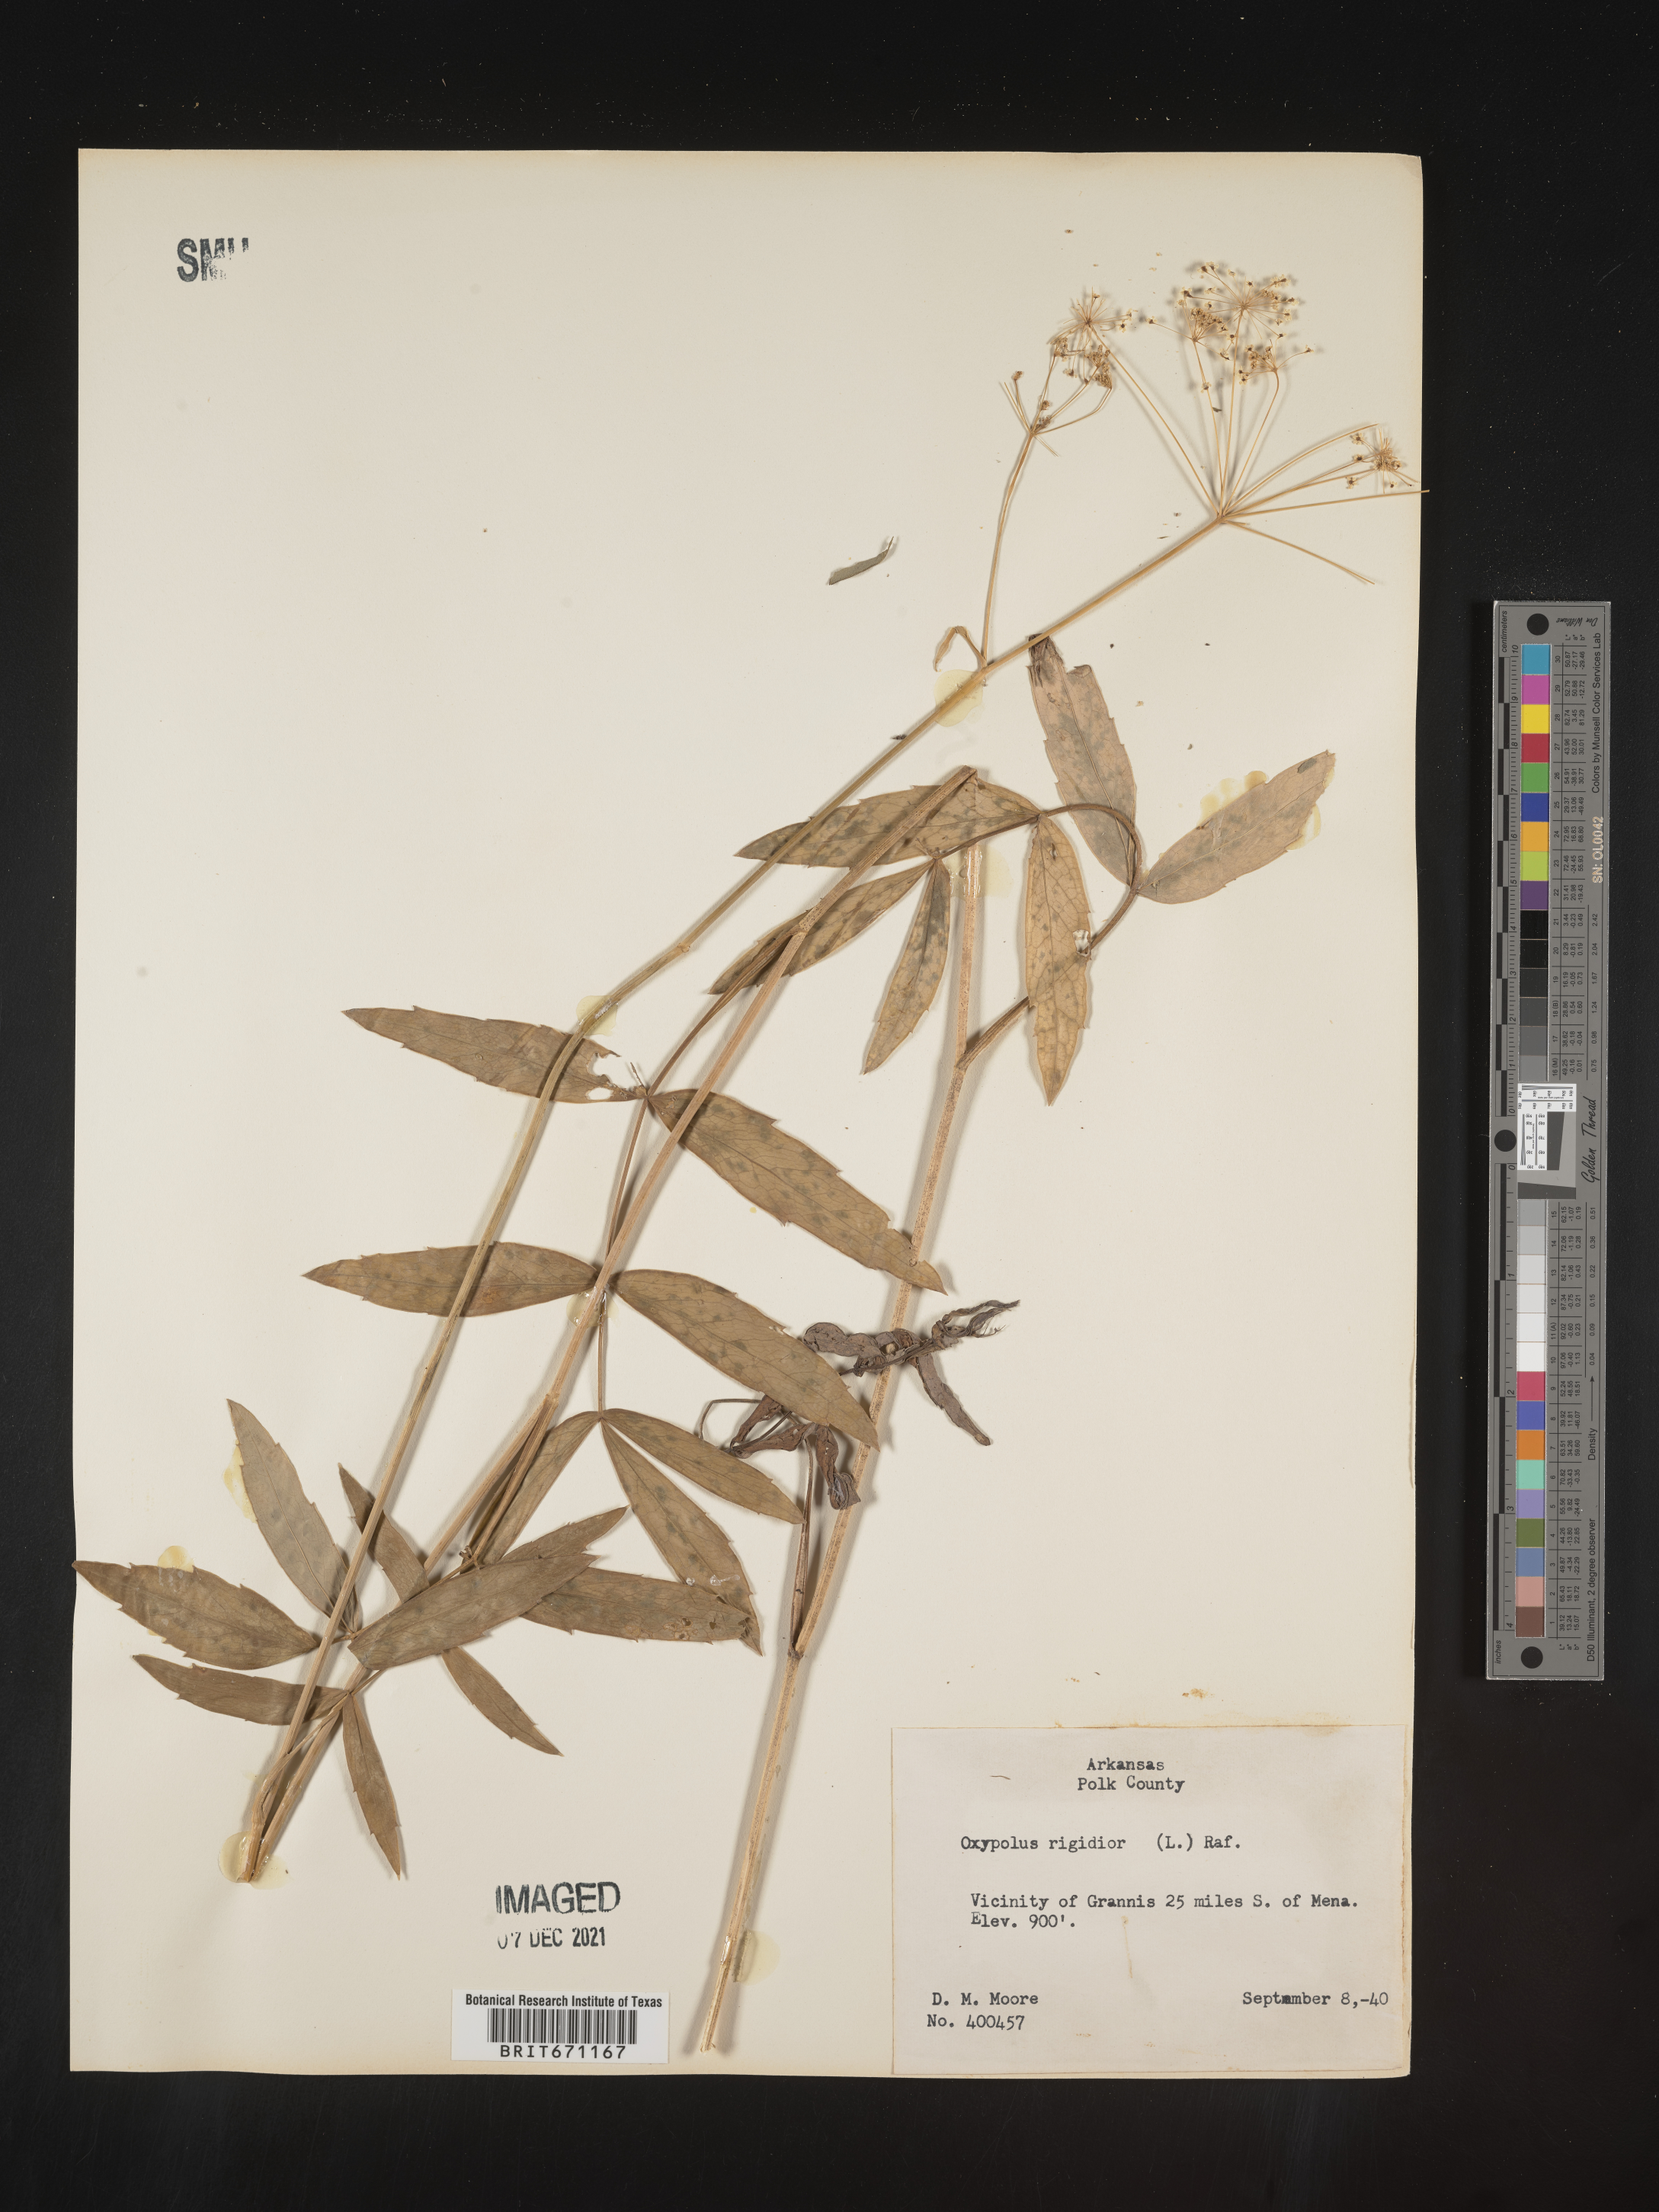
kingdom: Plantae
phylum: Tracheophyta
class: Magnoliopsida
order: Apiales
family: Apiaceae
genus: Oxypolis
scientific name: Oxypolis rigidior
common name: Cowbane
